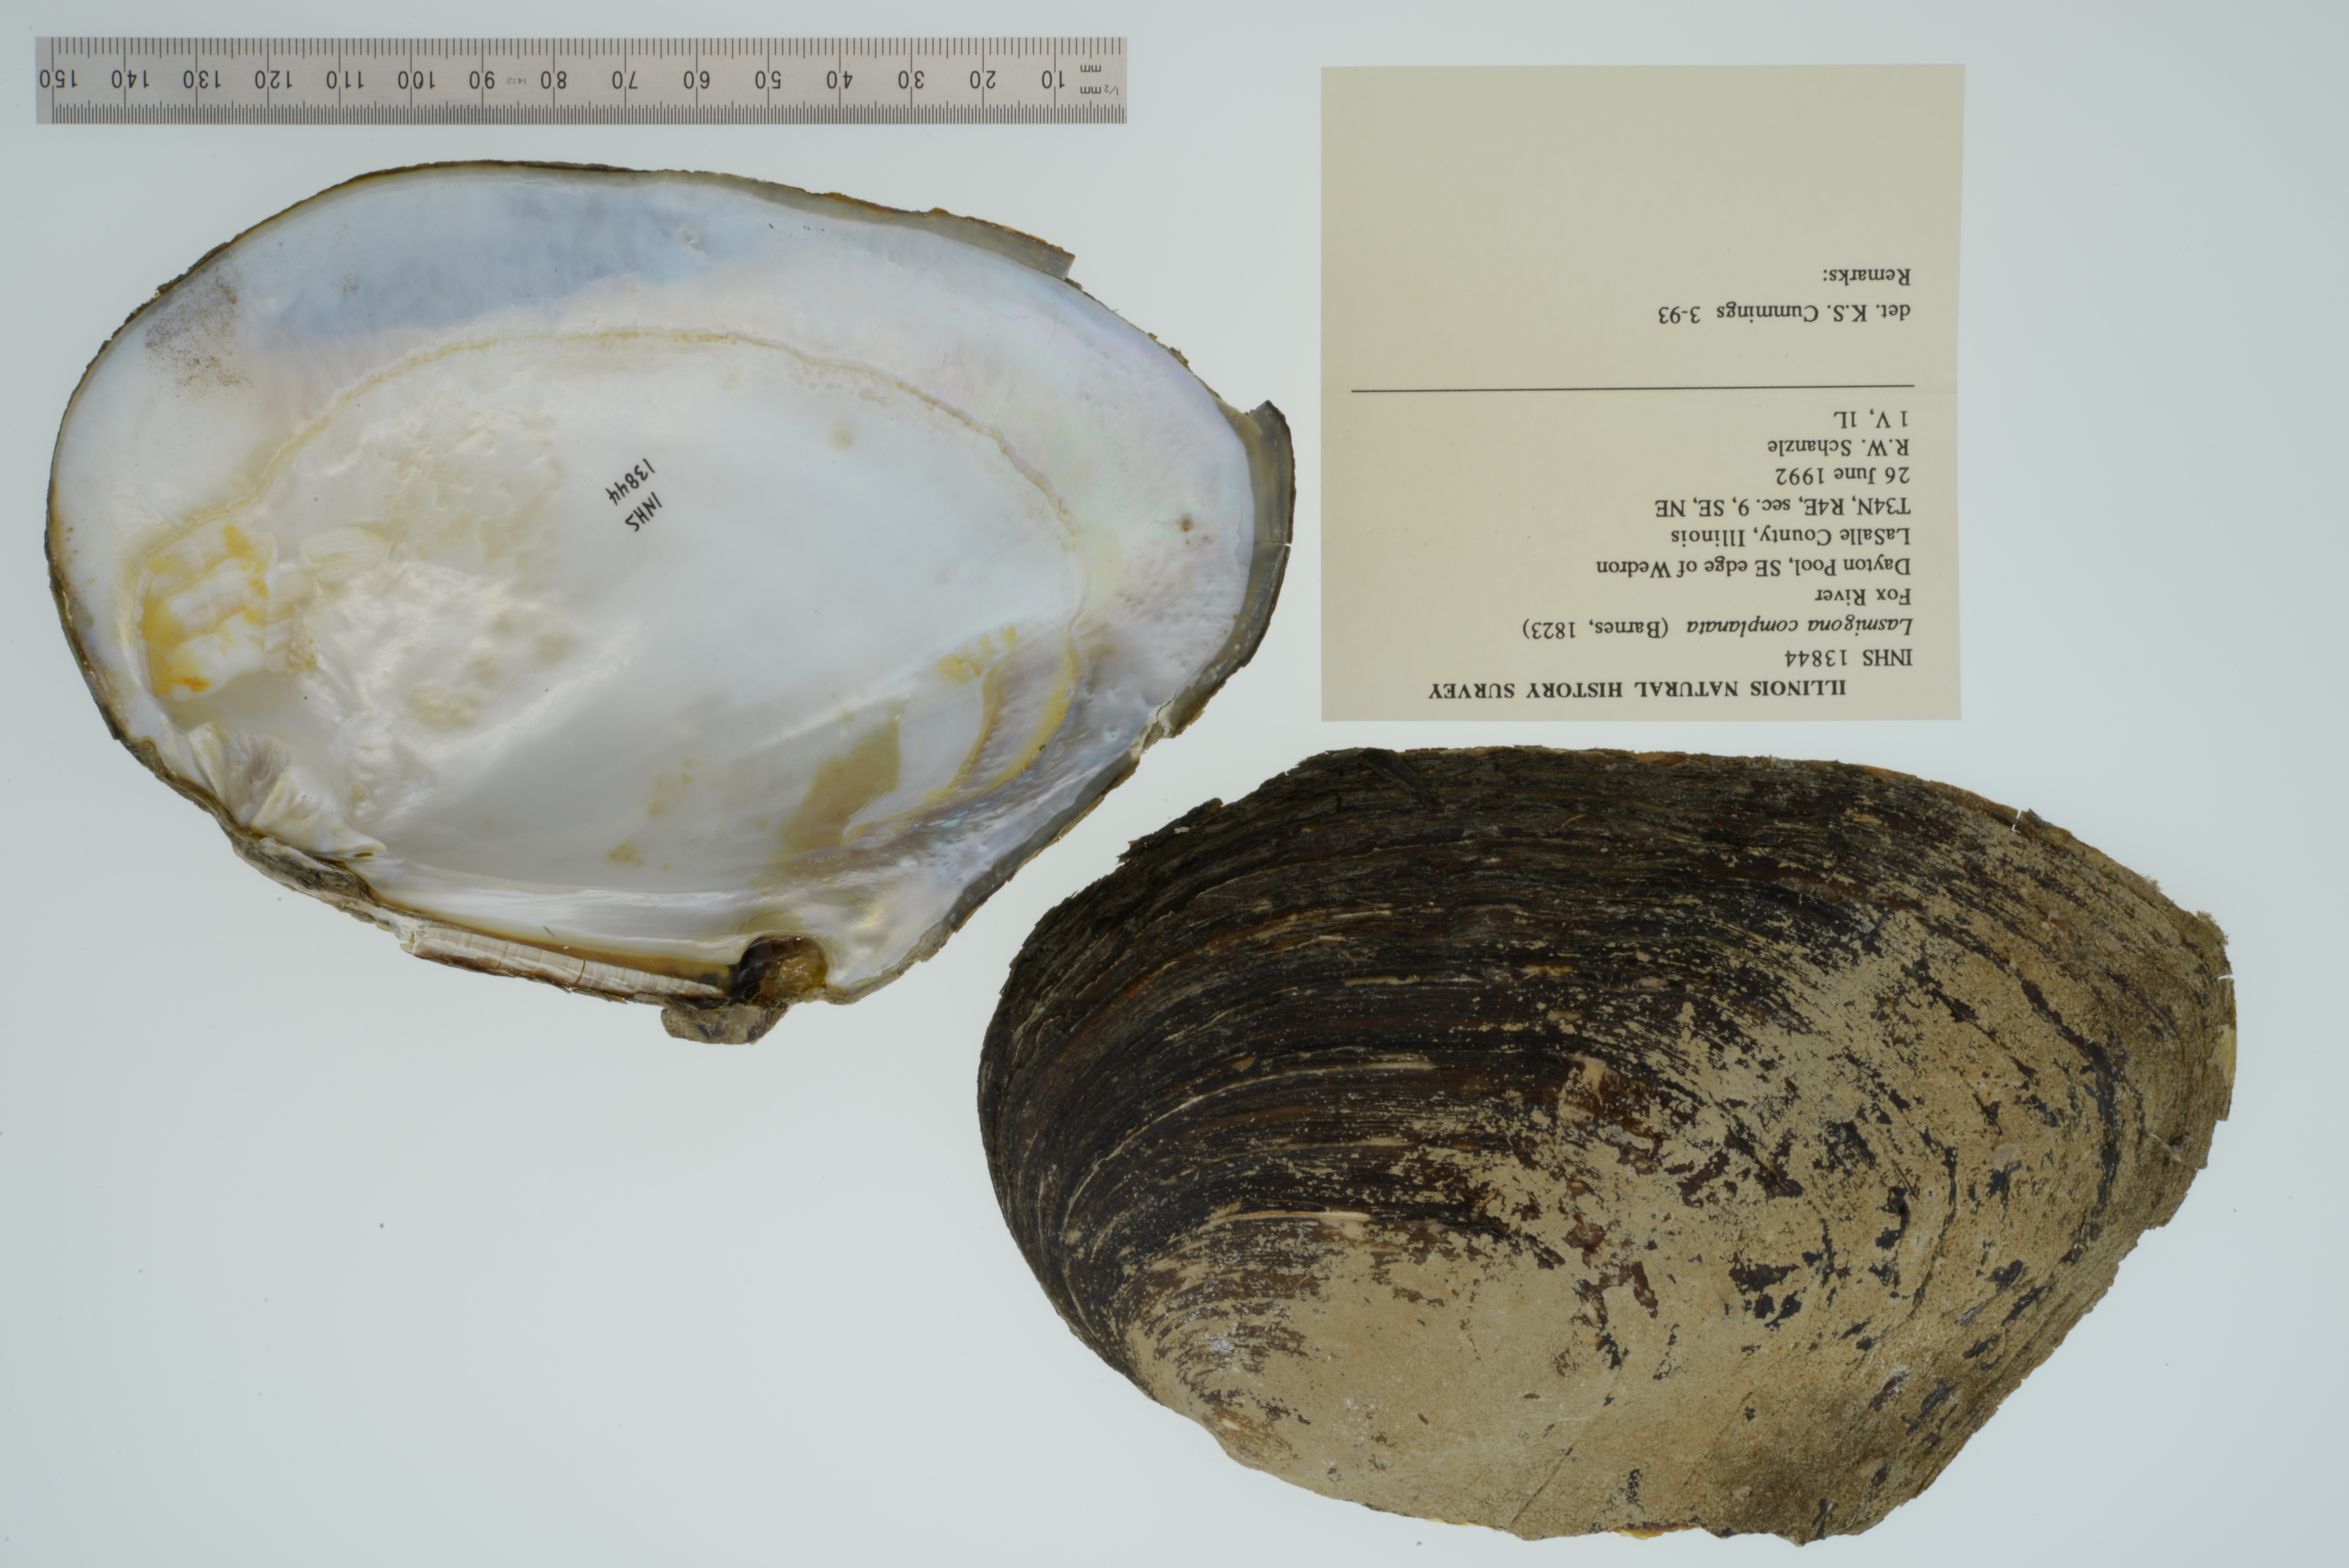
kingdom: Animalia
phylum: Mollusca
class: Bivalvia
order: Unionida
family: Unionidae
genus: Lasmigona
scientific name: Lasmigona complanata
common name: White heelsplitter
